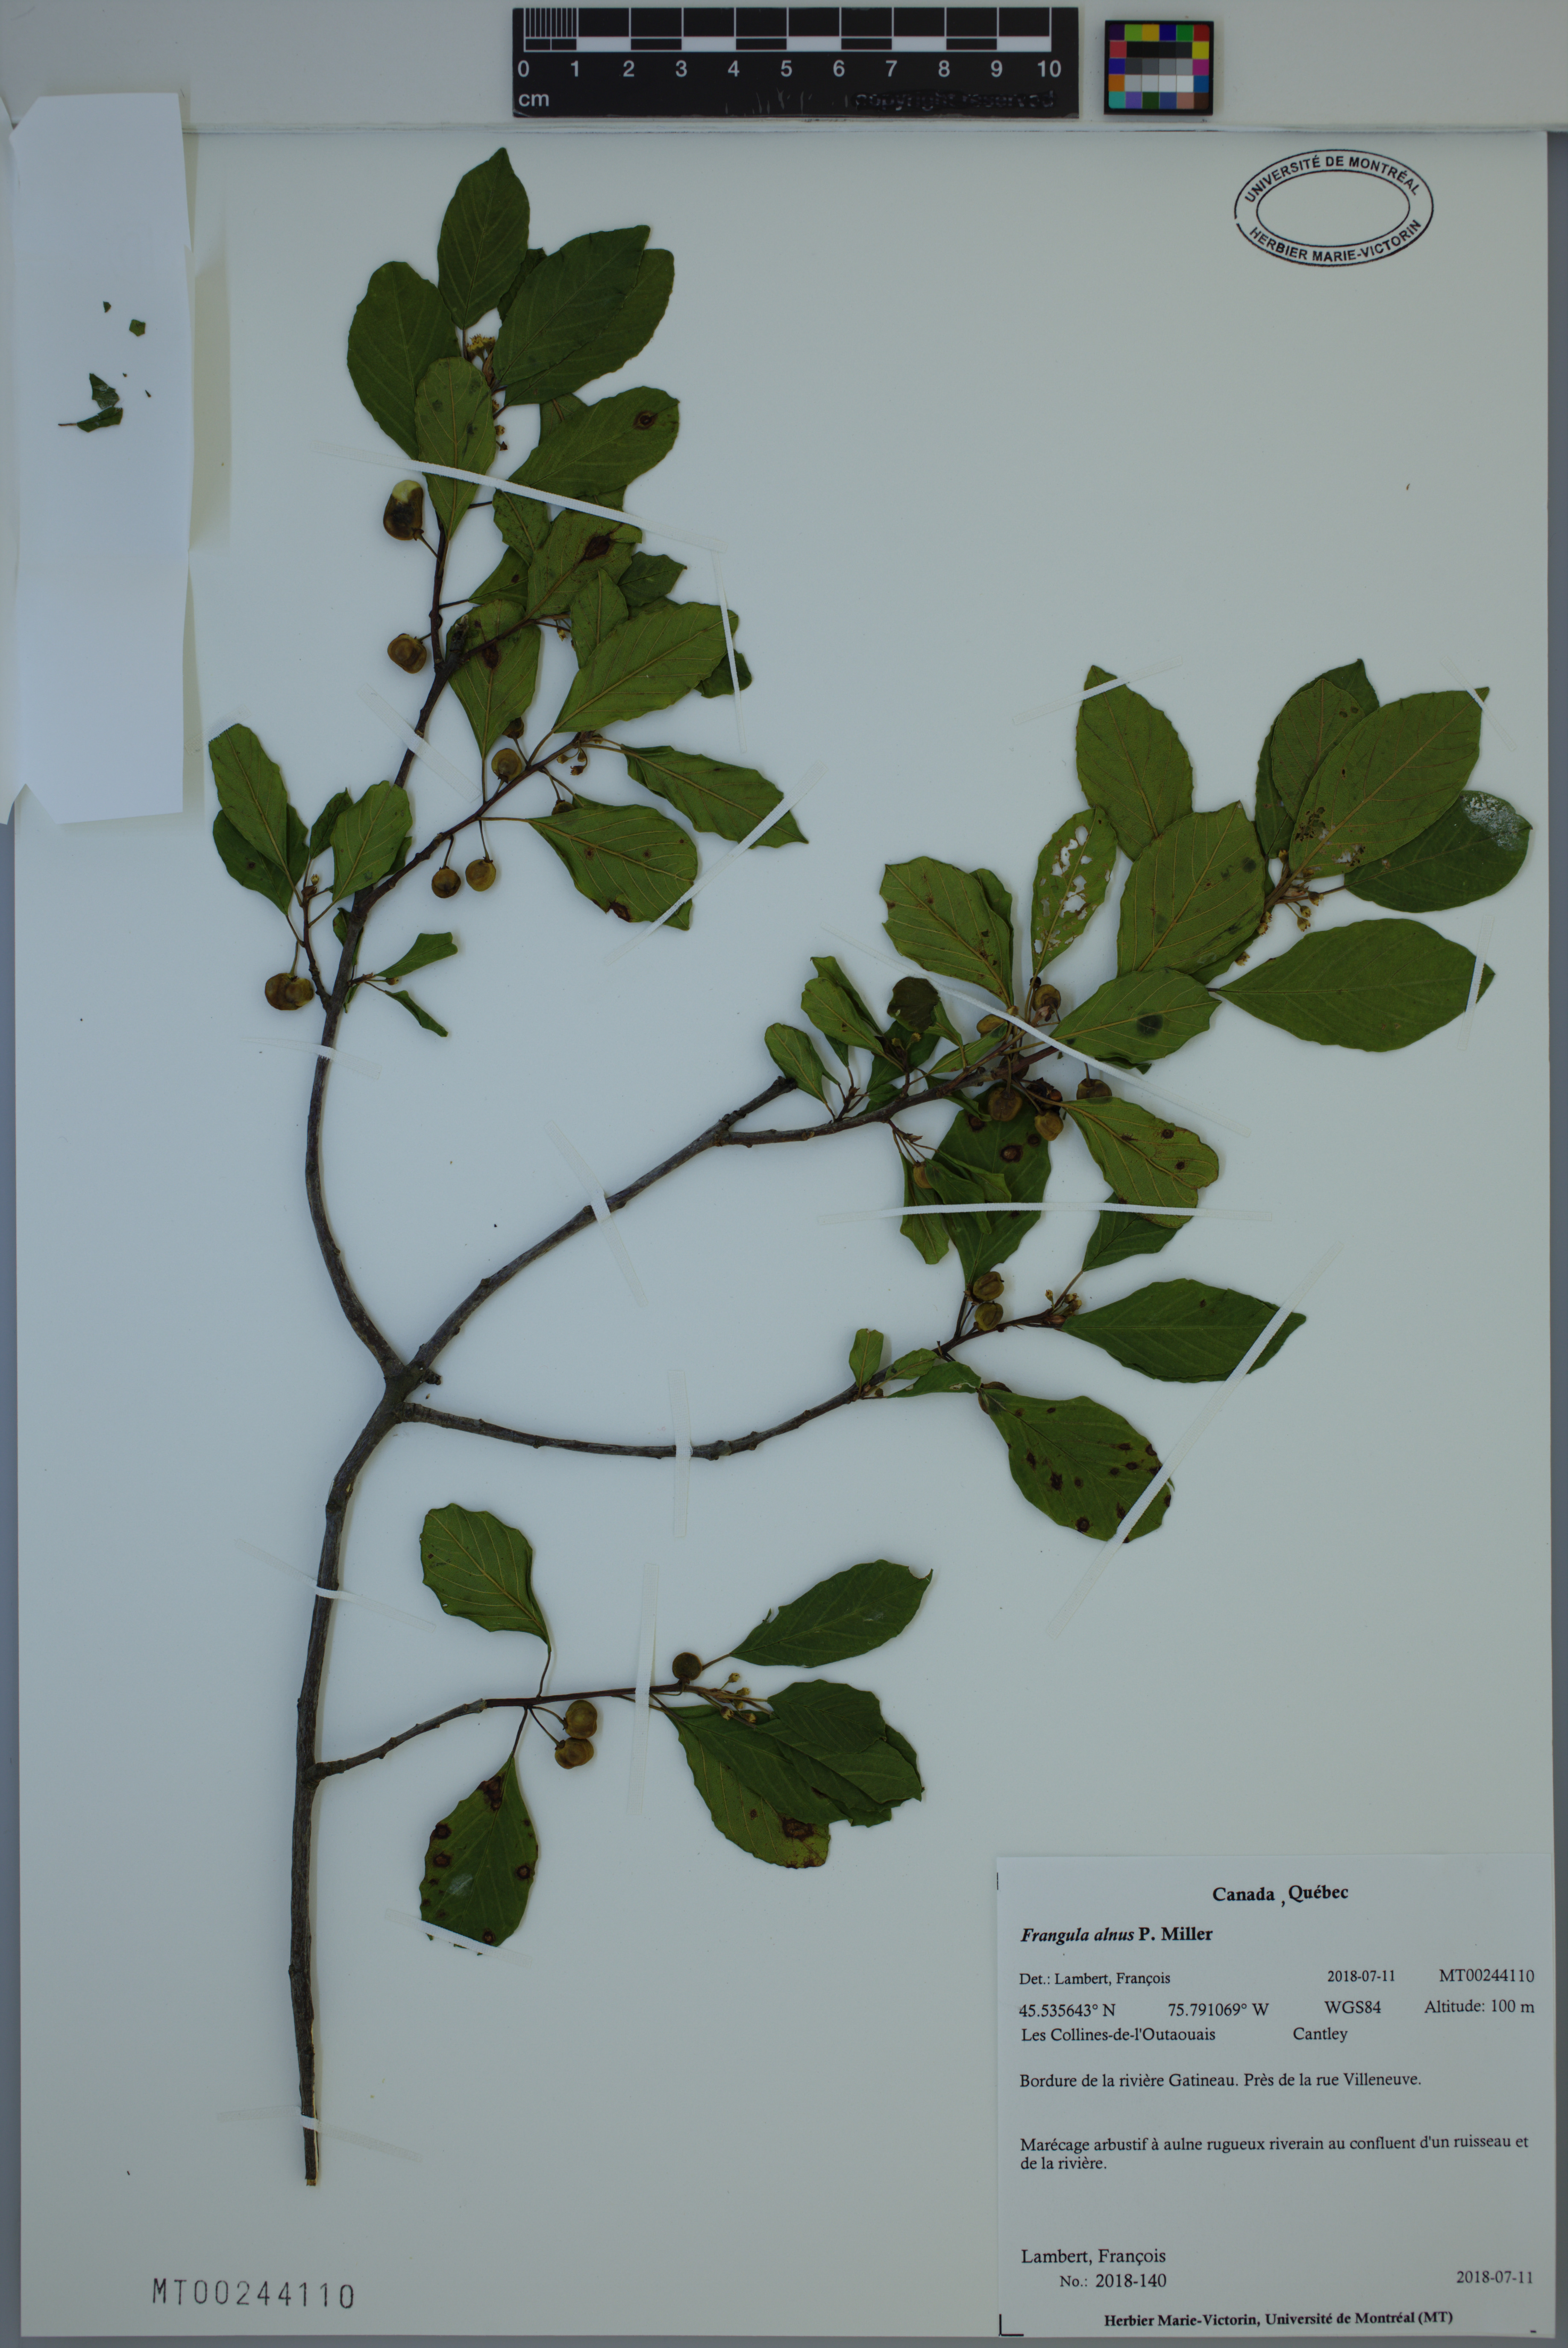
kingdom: Plantae
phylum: Tracheophyta
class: Magnoliopsida
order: Rosales
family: Rhamnaceae
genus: Frangula
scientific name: Frangula alnus
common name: Alder buckthorn
